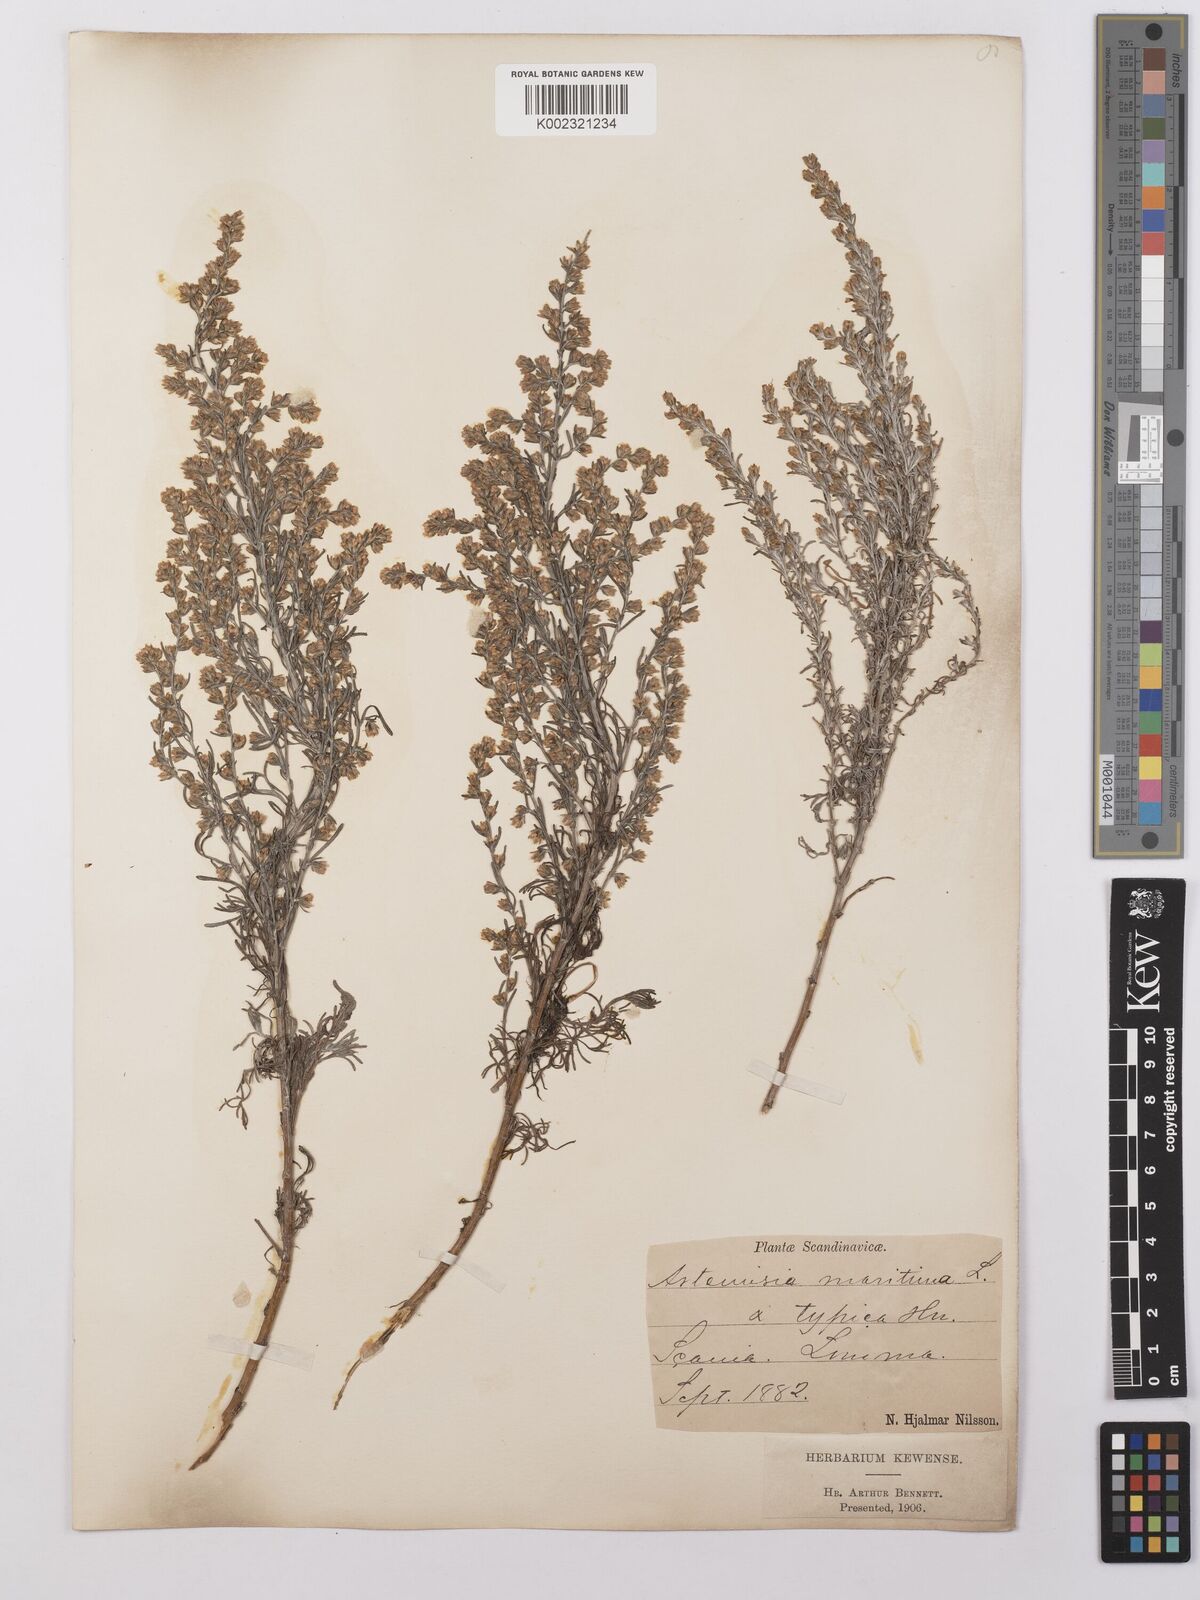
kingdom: Plantae
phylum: Tracheophyta
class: Magnoliopsida
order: Asterales
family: Asteraceae
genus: Artemisia
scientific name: Artemisia maritima
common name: Wormseed
